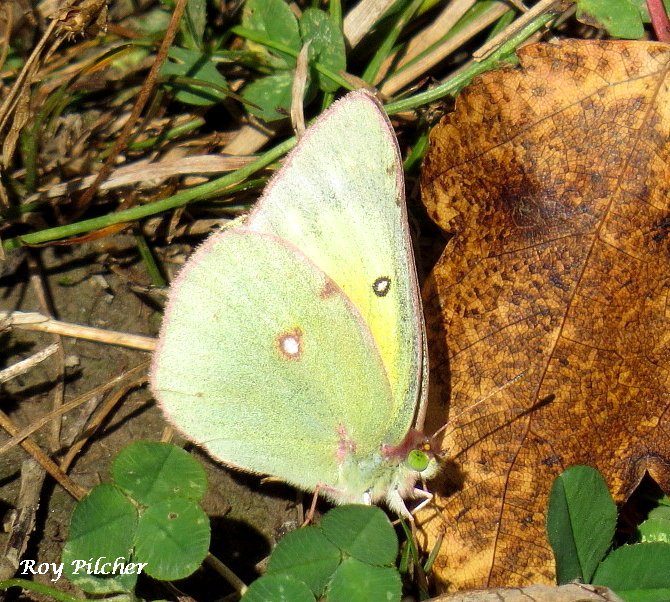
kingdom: Animalia
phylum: Arthropoda
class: Insecta
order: Lepidoptera
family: Pieridae
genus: Colias
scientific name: Colias philodice
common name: Clouded Sulphur
